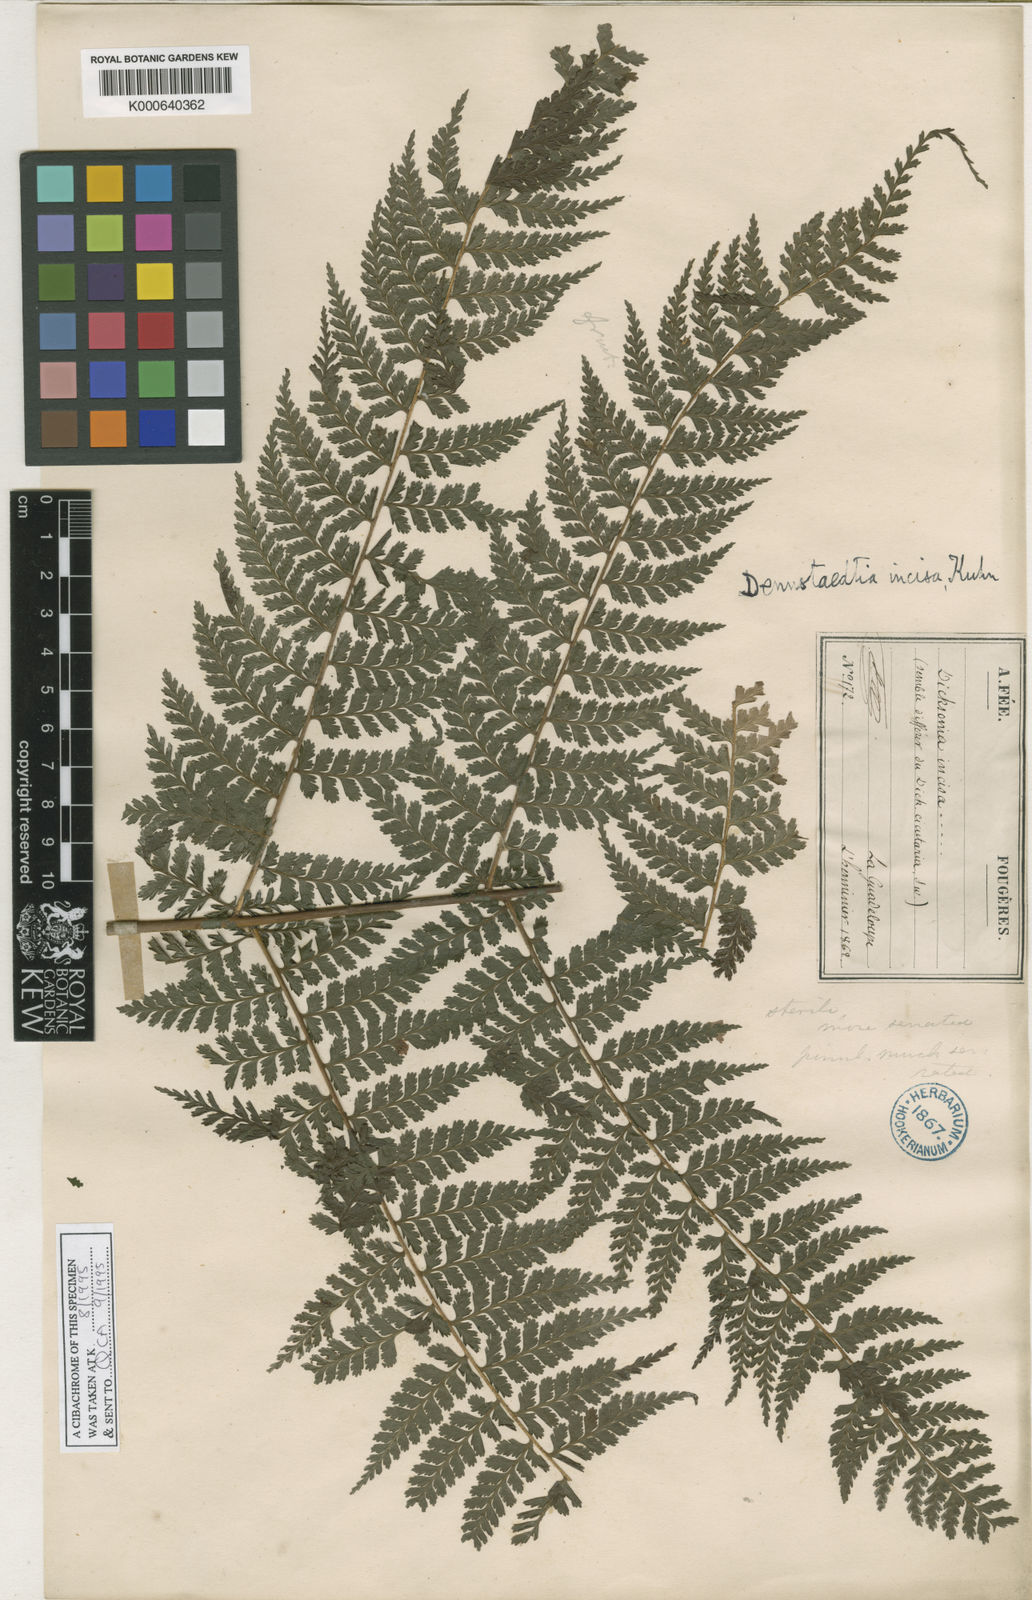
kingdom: Plantae
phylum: Tracheophyta
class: Polypodiopsida
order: Polypodiales
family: Dennstaedtiaceae
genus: Dennstaedtia
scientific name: Dennstaedtia
